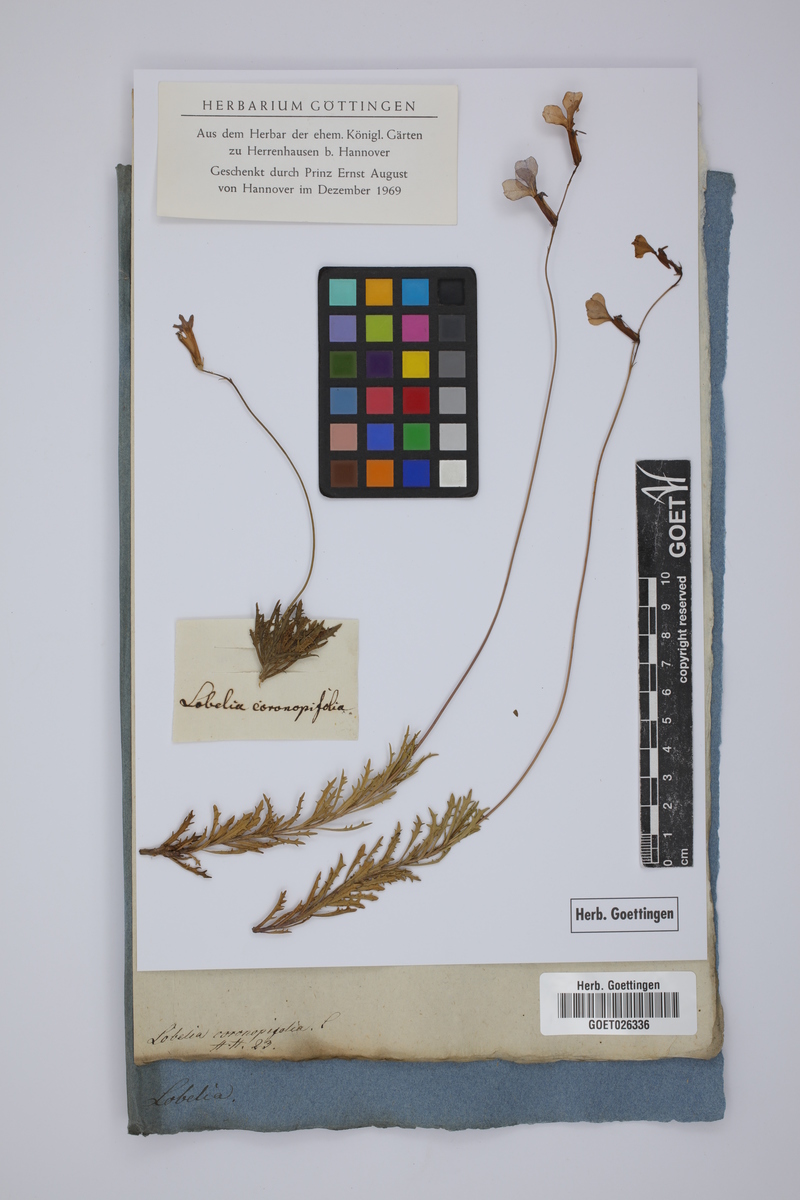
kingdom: Plantae
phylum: Tracheophyta
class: Magnoliopsida
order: Asterales
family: Campanulaceae
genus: Lobelia
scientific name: Lobelia coronopifolia
